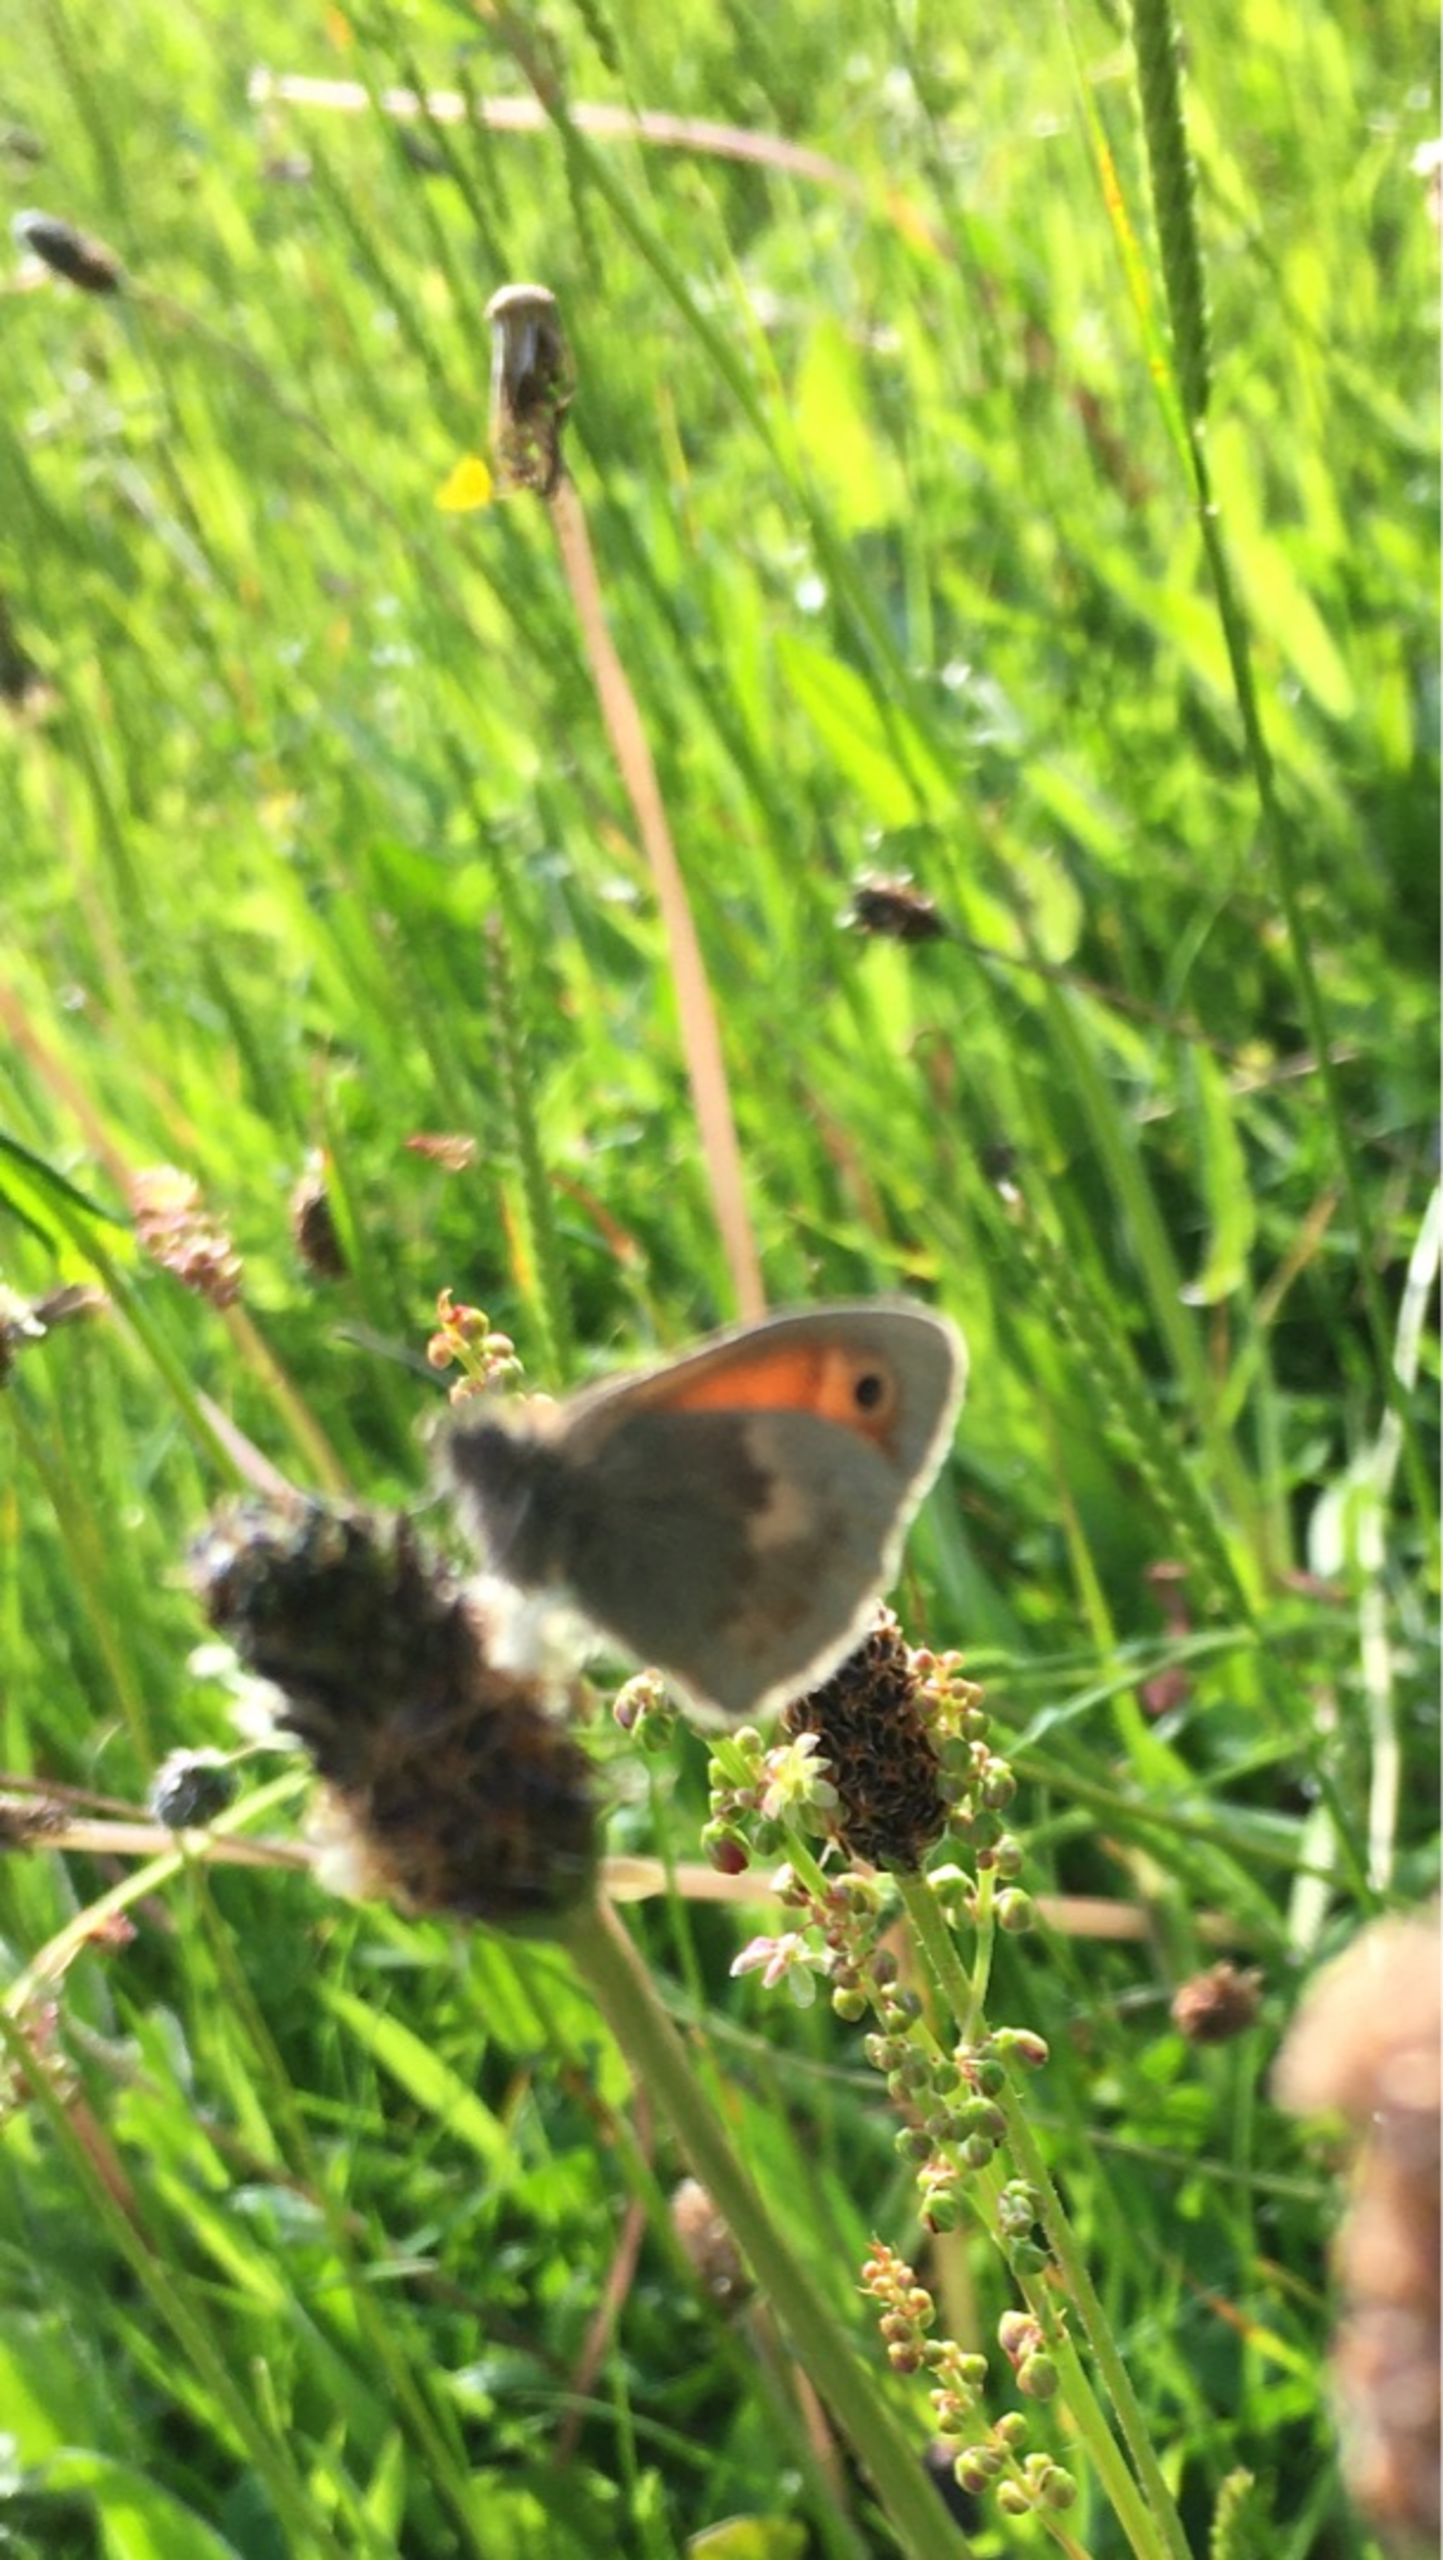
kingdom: Animalia
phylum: Arthropoda
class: Insecta
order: Lepidoptera
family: Nymphalidae
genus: Coenonympha
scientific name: Coenonympha pamphilus
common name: Okkergul randøje
